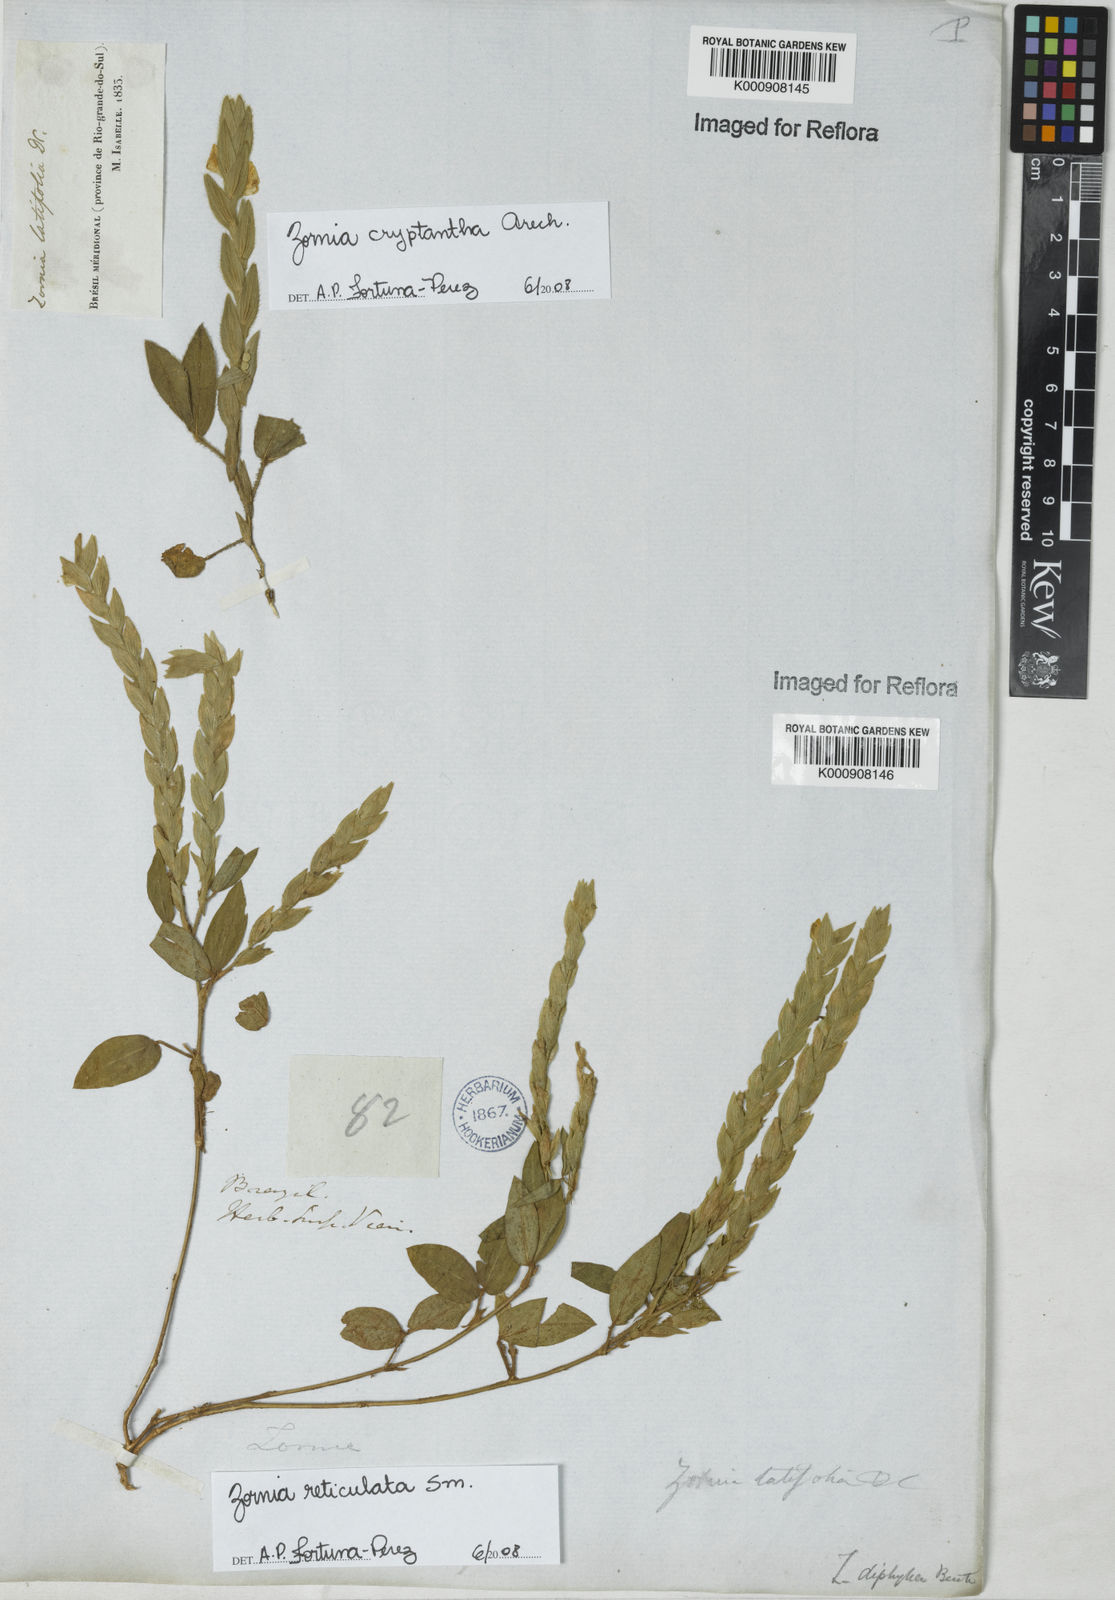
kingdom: Plantae
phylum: Tracheophyta
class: Magnoliopsida
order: Fabales
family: Fabaceae
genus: Zornia
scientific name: Zornia reticulata
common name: Reticulate viperina
